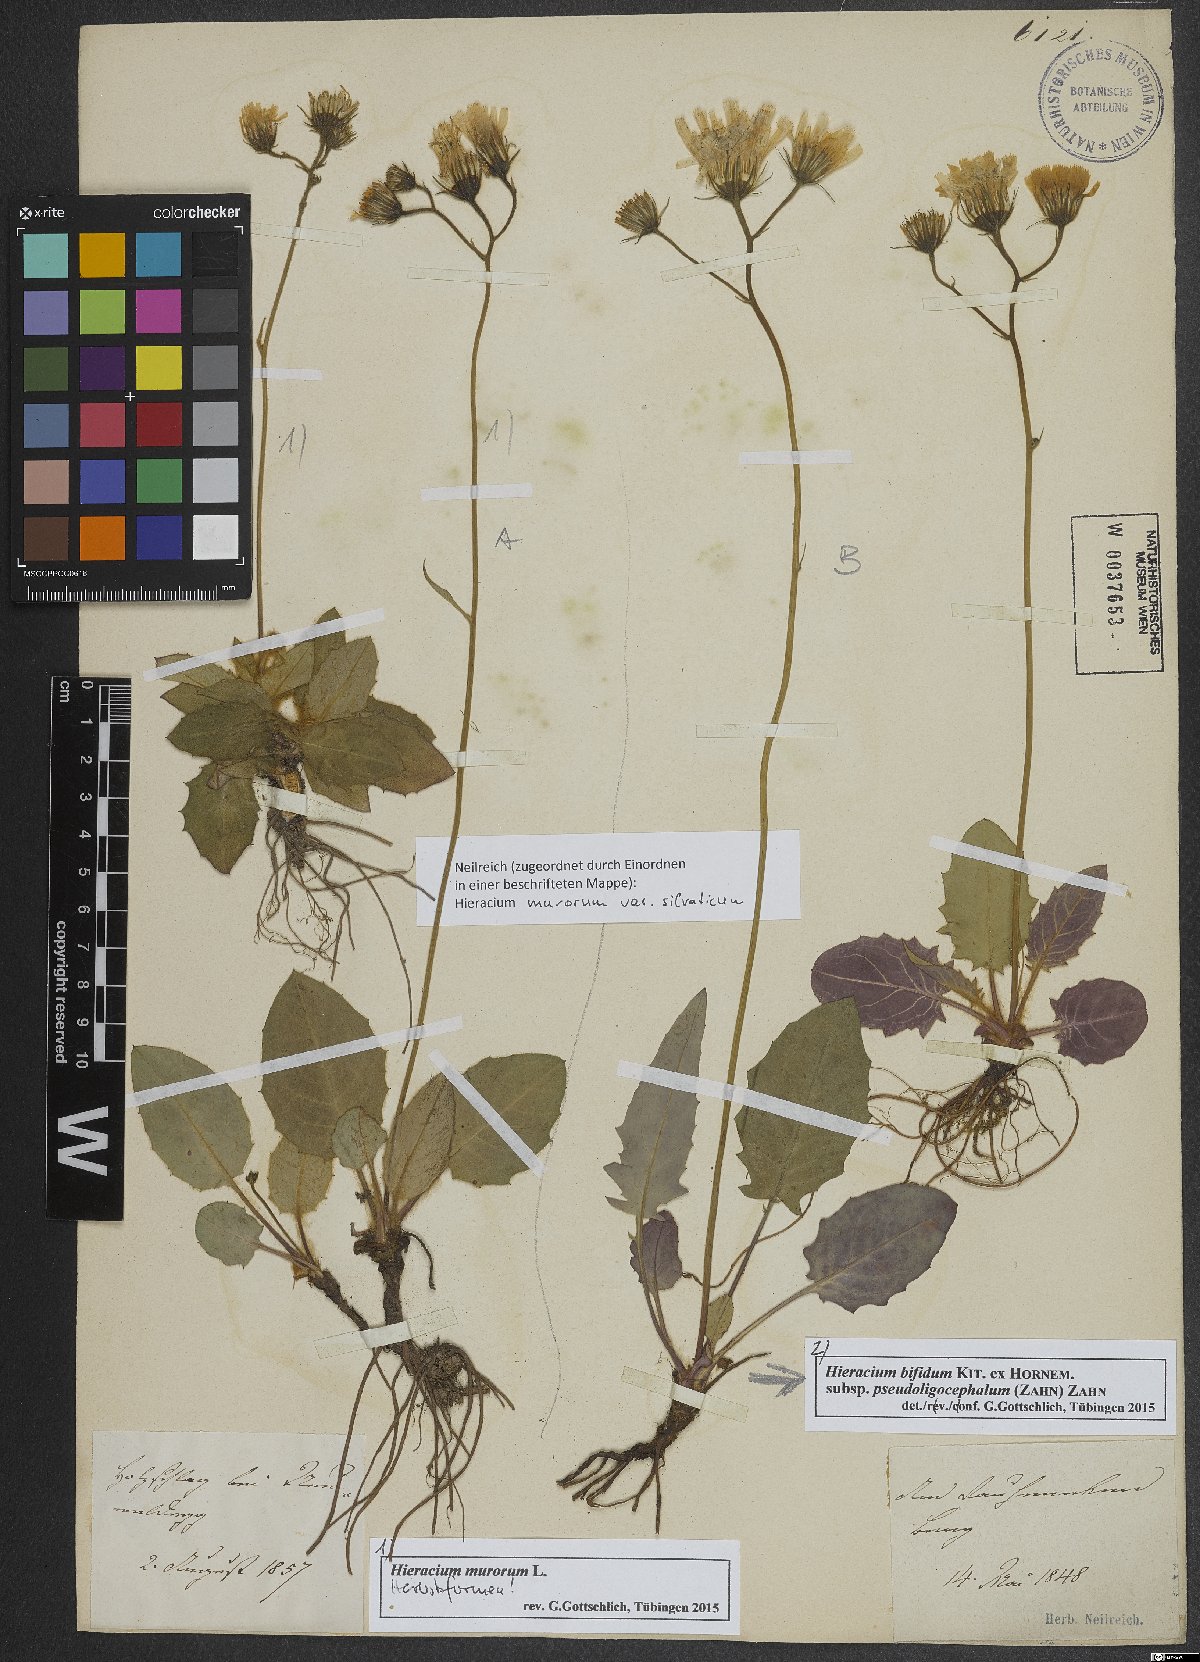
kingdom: Plantae
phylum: Tracheophyta
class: Magnoliopsida
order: Asterales
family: Asteraceae
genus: Hieracium
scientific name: Hieracium murorum
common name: Wall hawkweed
